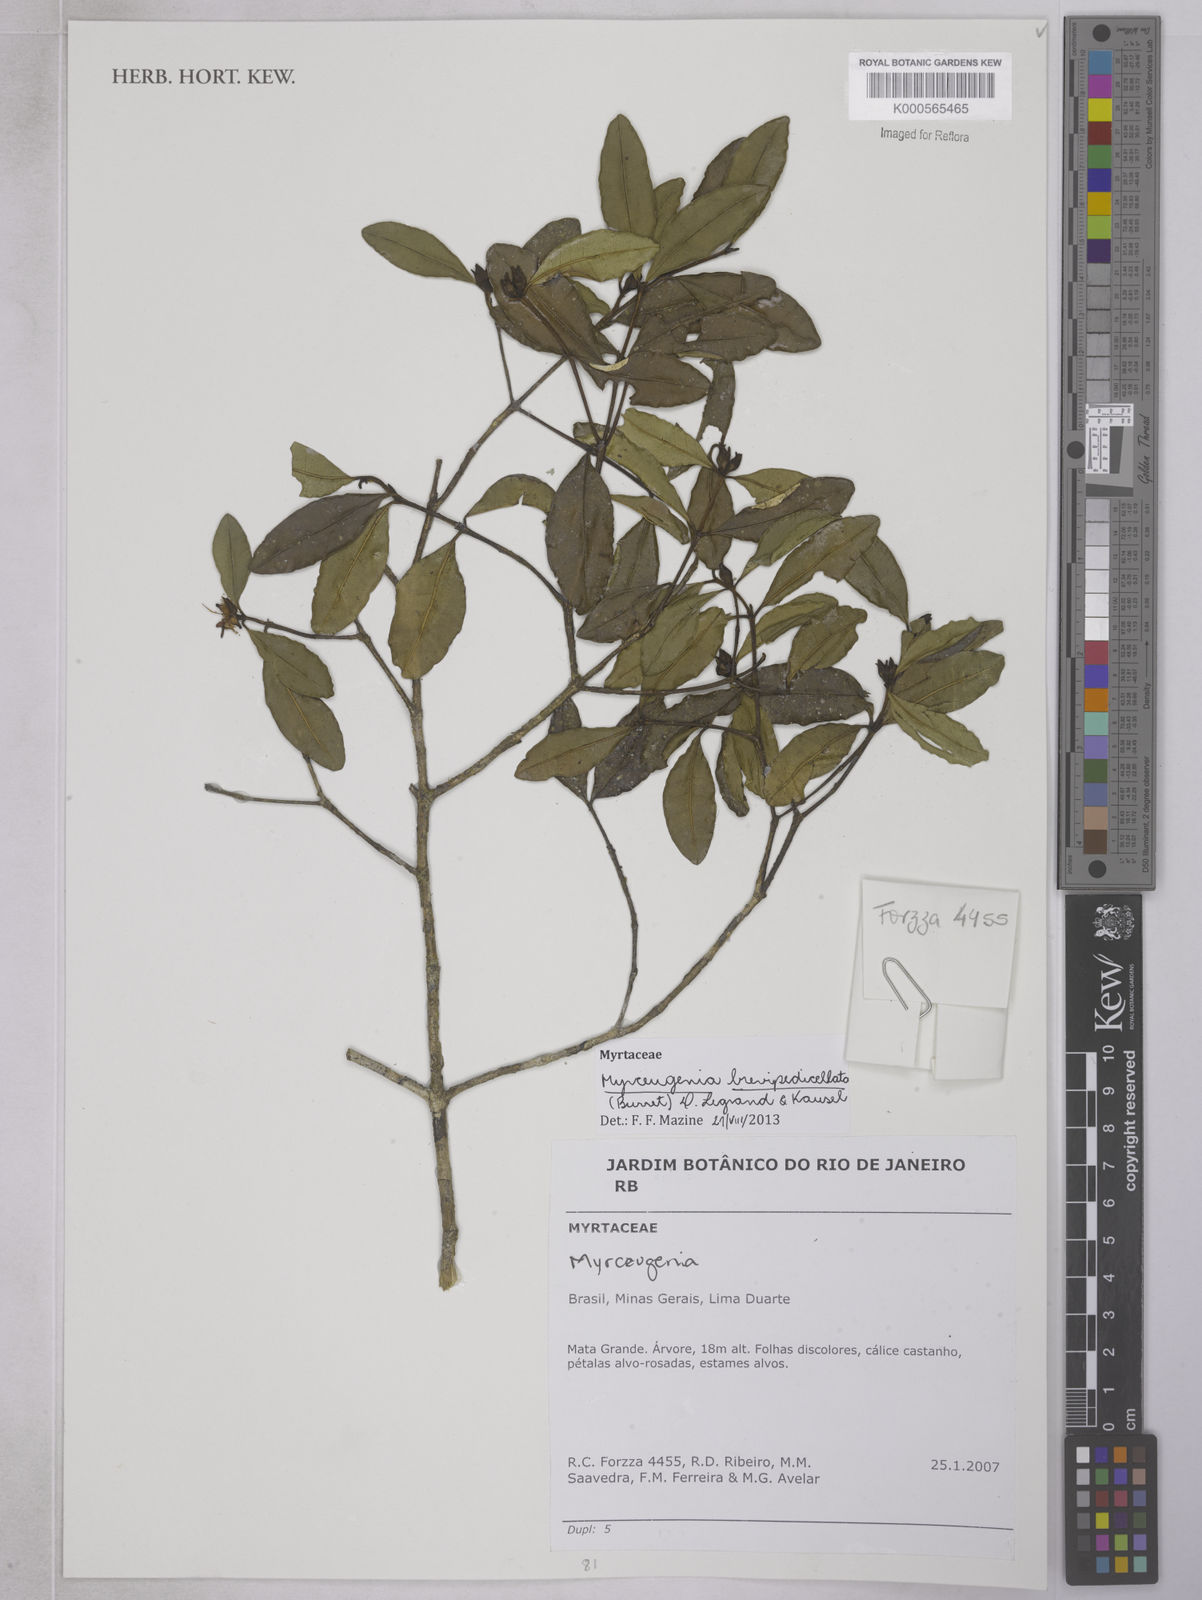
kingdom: Plantae
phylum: Tracheophyta
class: Magnoliopsida
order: Myrtales
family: Myrtaceae
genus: Myrceugenia
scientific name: Myrceugenia brevipedicellata
